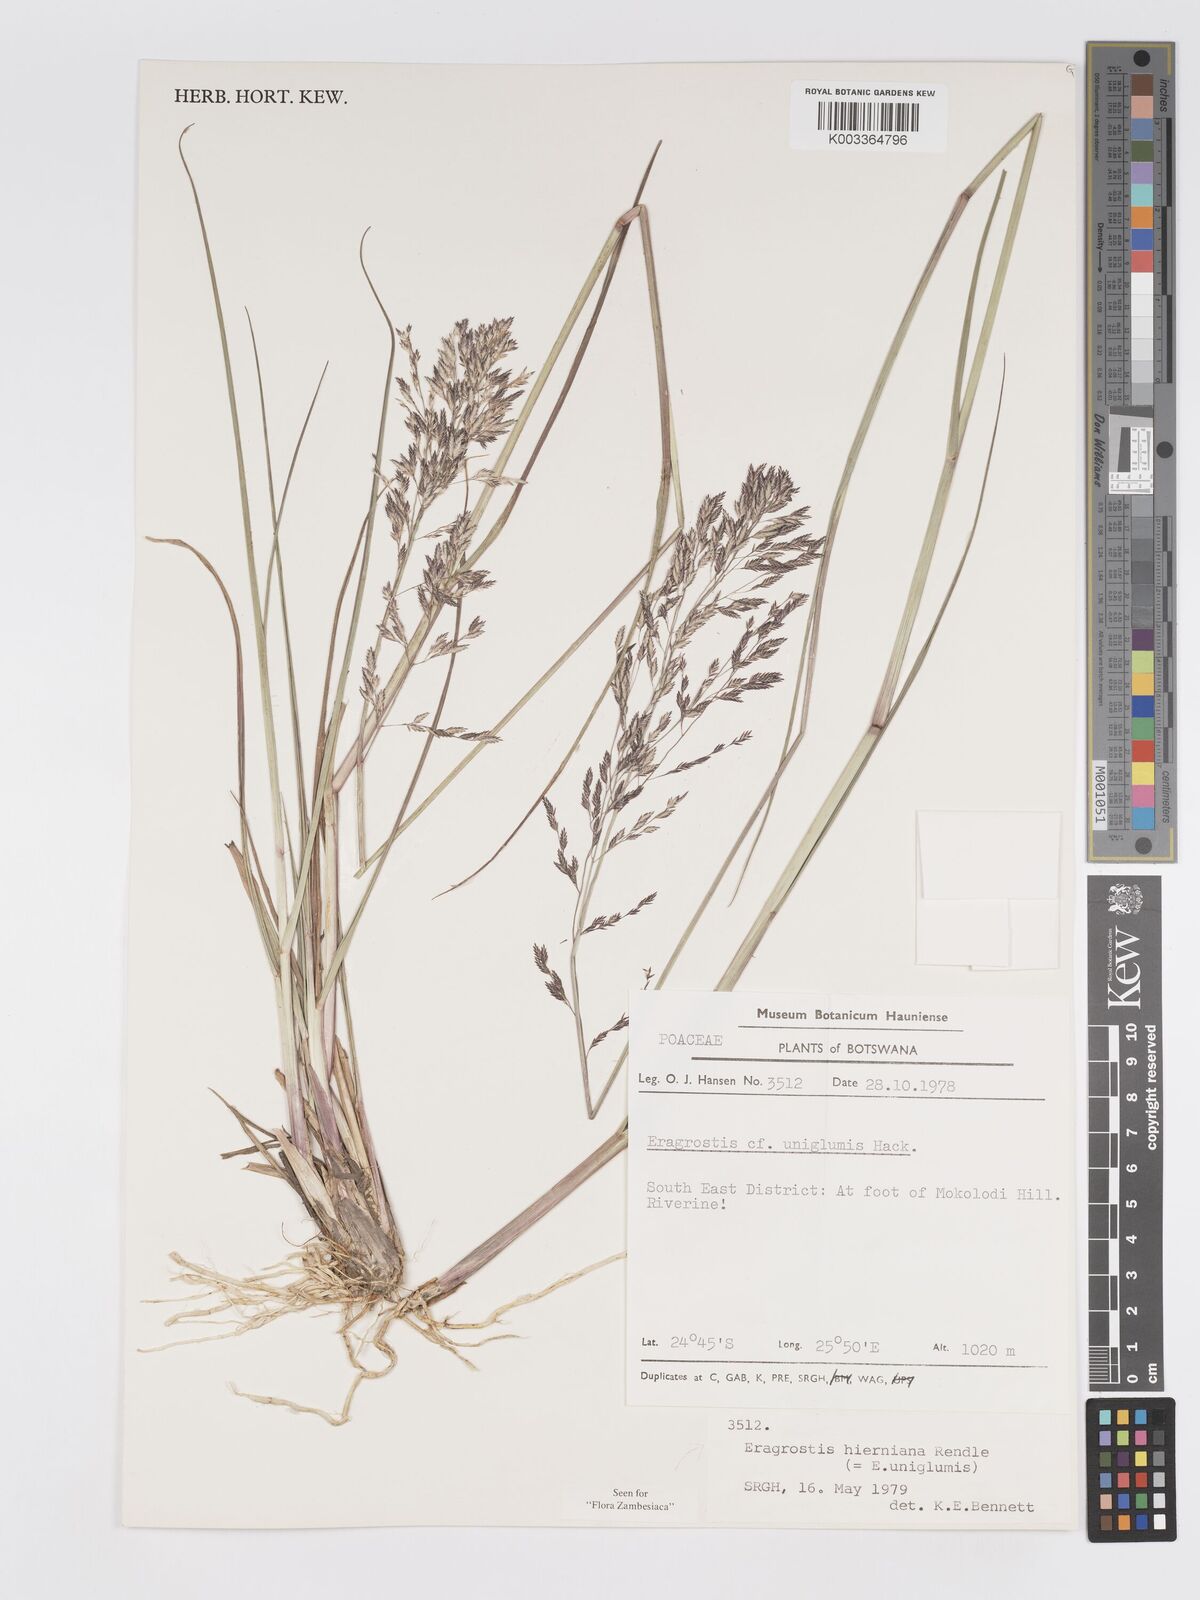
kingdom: Plantae
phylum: Tracheophyta
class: Liliopsida
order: Poales
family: Poaceae
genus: Eragrostis
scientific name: Eragrostis hierniana
